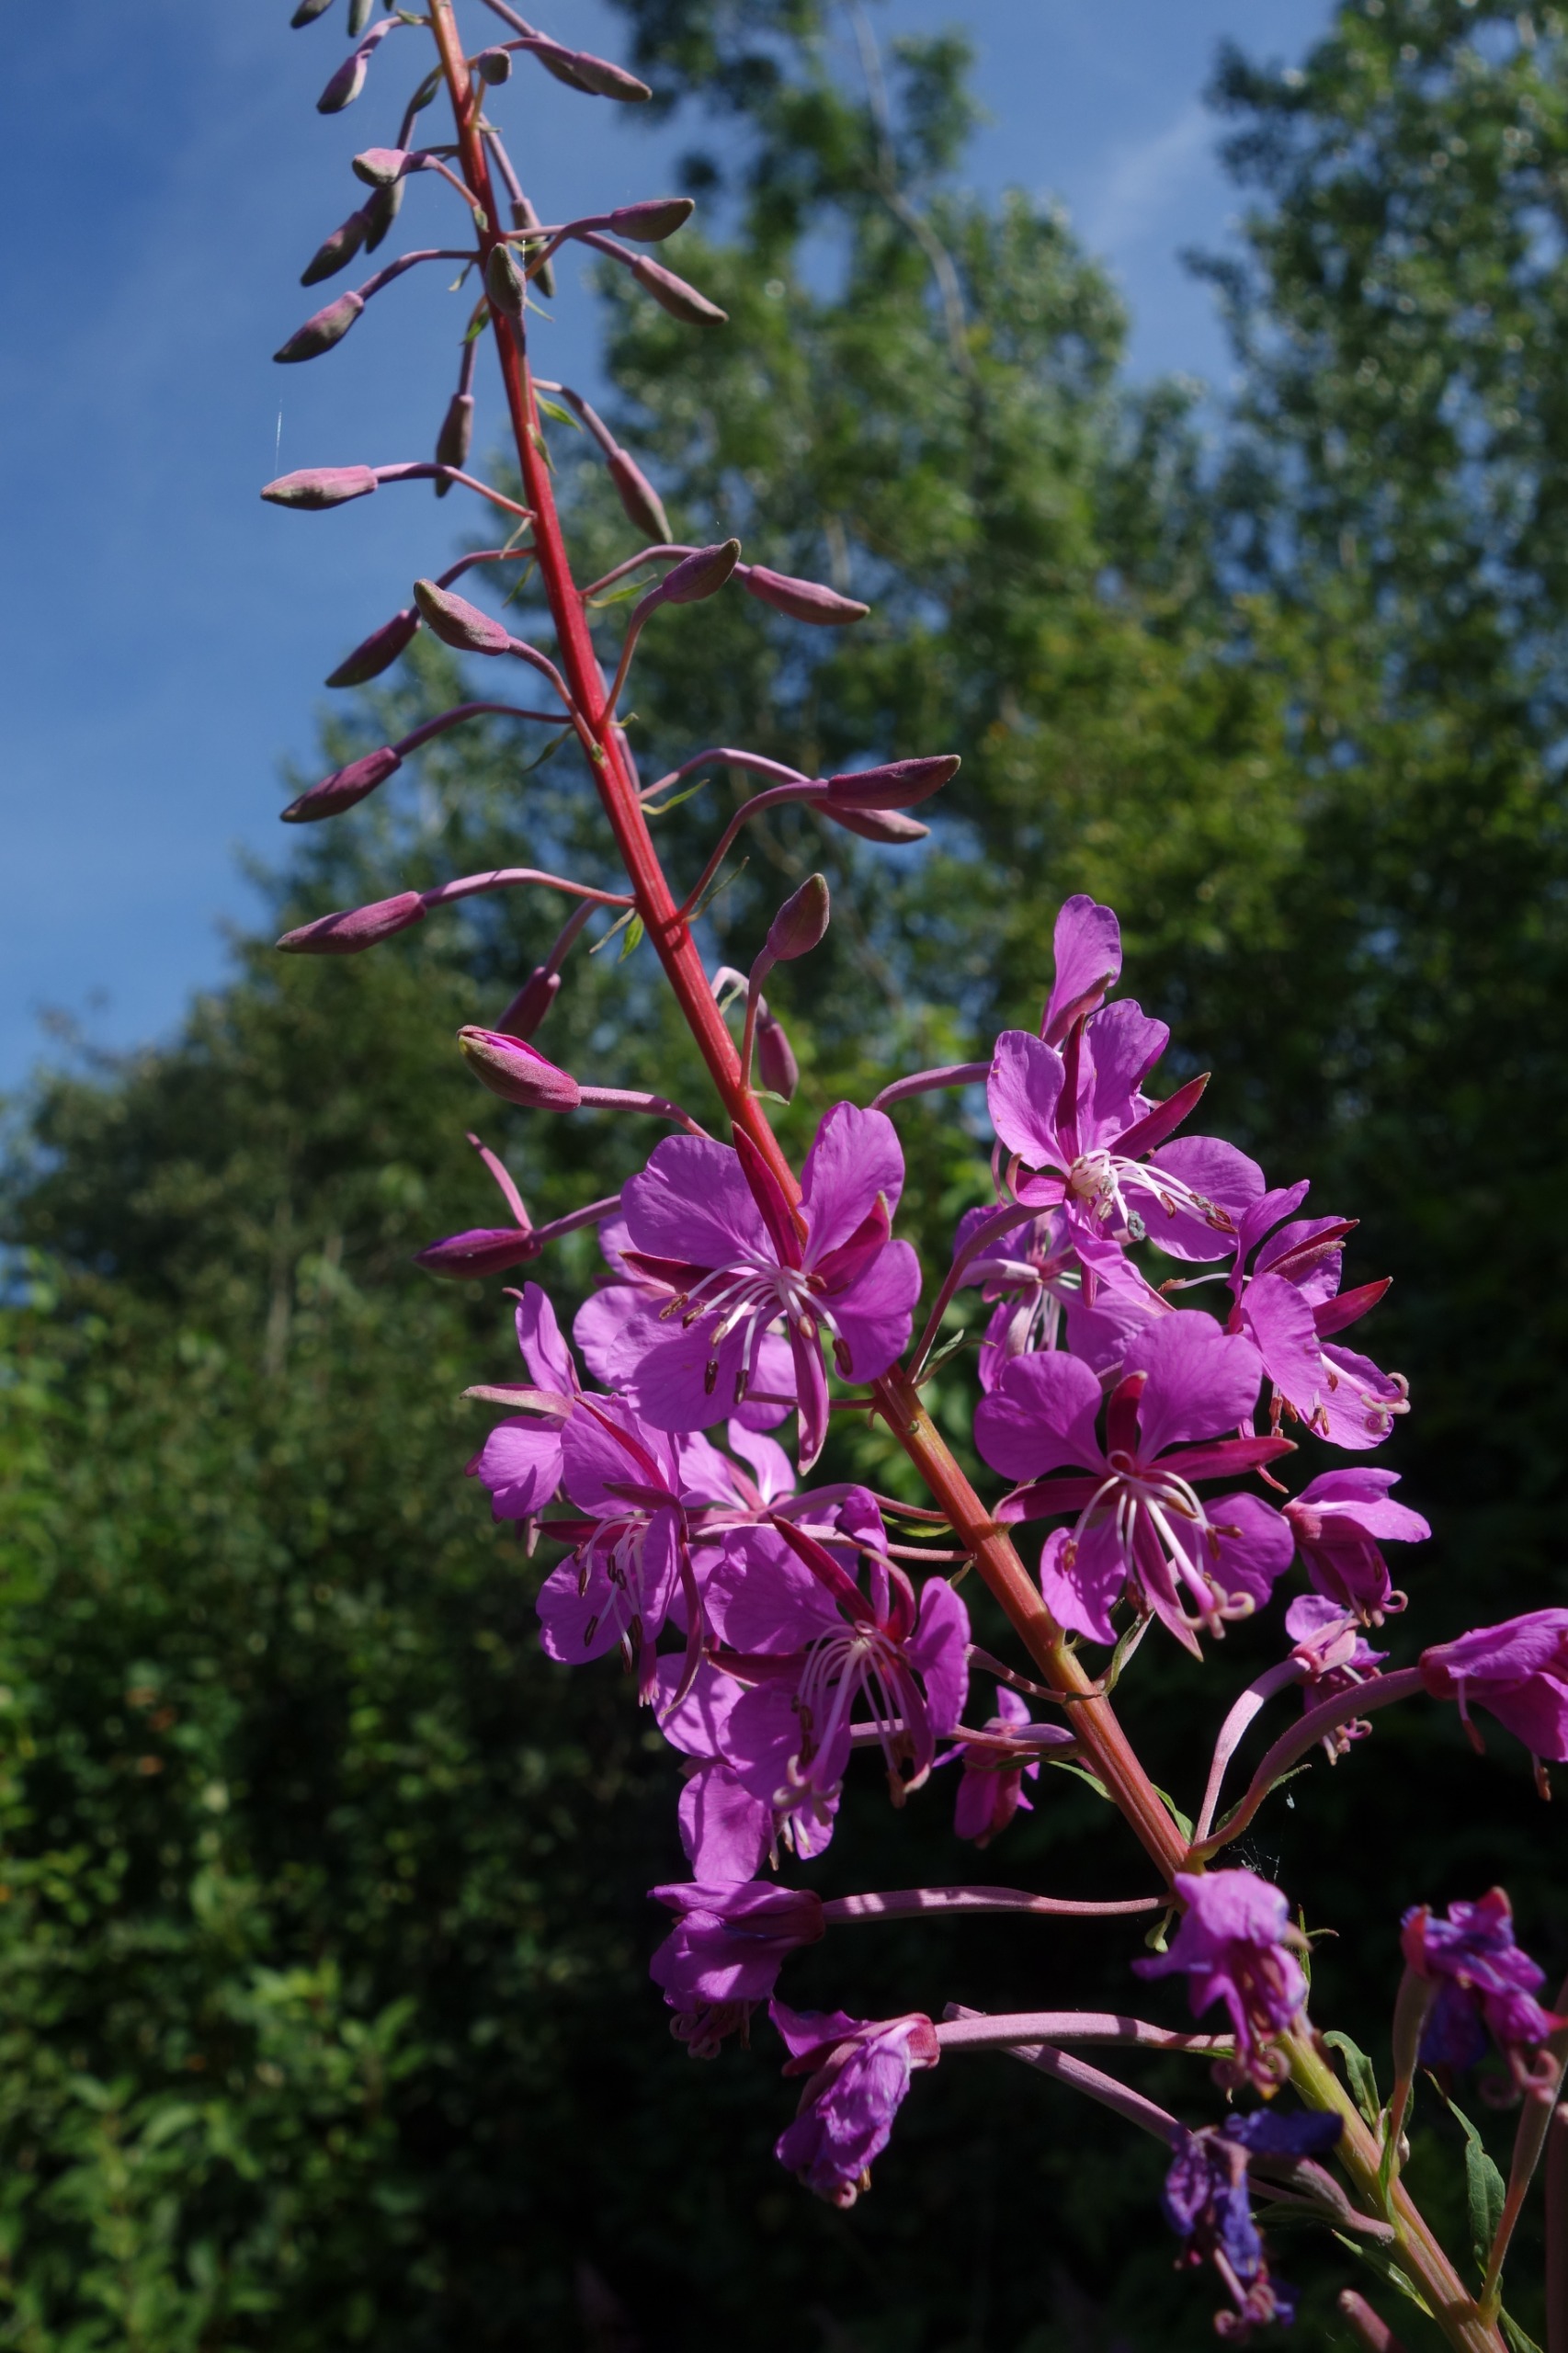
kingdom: Plantae
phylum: Tracheophyta
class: Magnoliopsida
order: Myrtales
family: Onagraceae
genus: Chamaenerion
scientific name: Chamaenerion angustifolium
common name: Gederams
